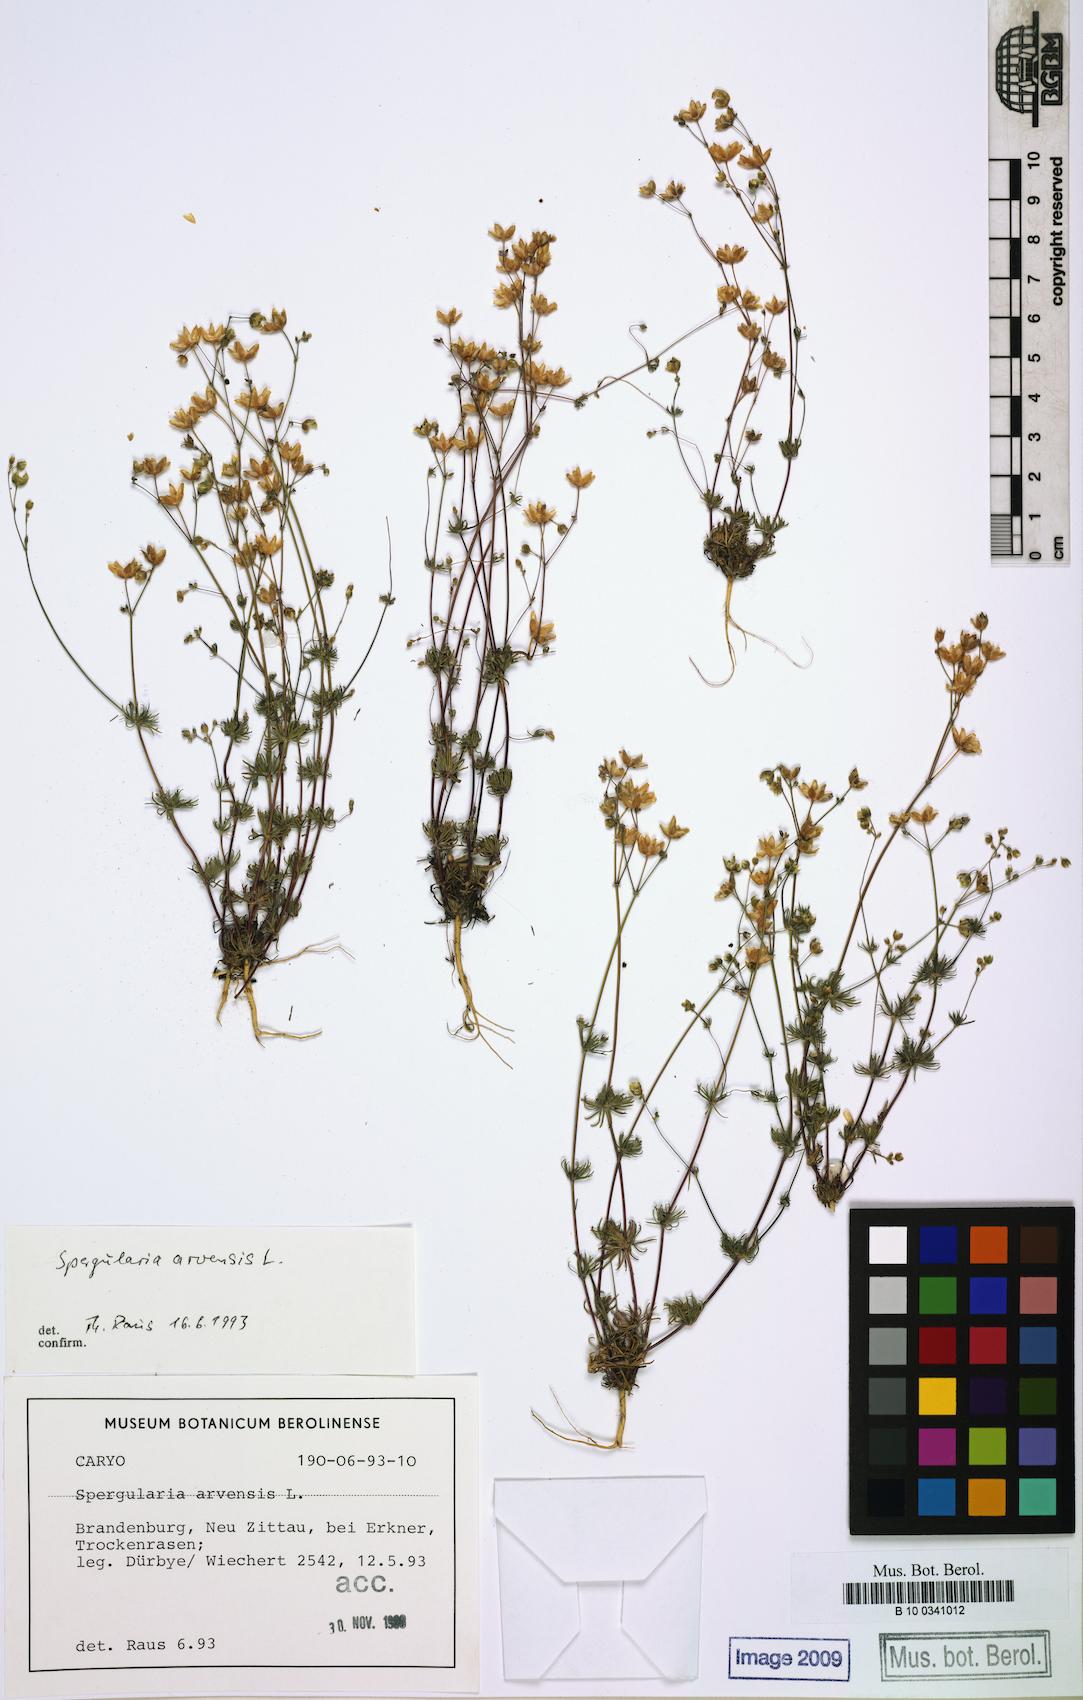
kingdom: Plantae
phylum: Tracheophyta
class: Magnoliopsida
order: Caryophyllales
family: Caryophyllaceae
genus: Spergula
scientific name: Spergula arvensis
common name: Corn spurrey
